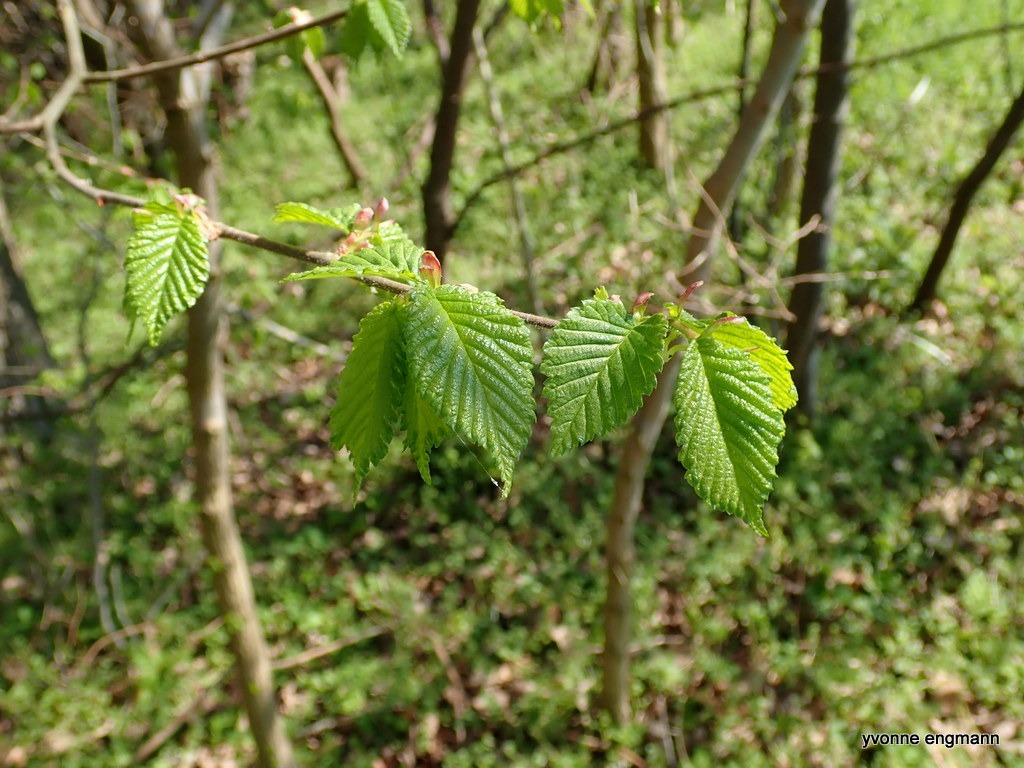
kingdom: Plantae
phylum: Tracheophyta
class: Magnoliopsida
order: Rosales
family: Ulmaceae
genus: Ulmus
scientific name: Ulmus glabra
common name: Skov-elm/storbladet elm
